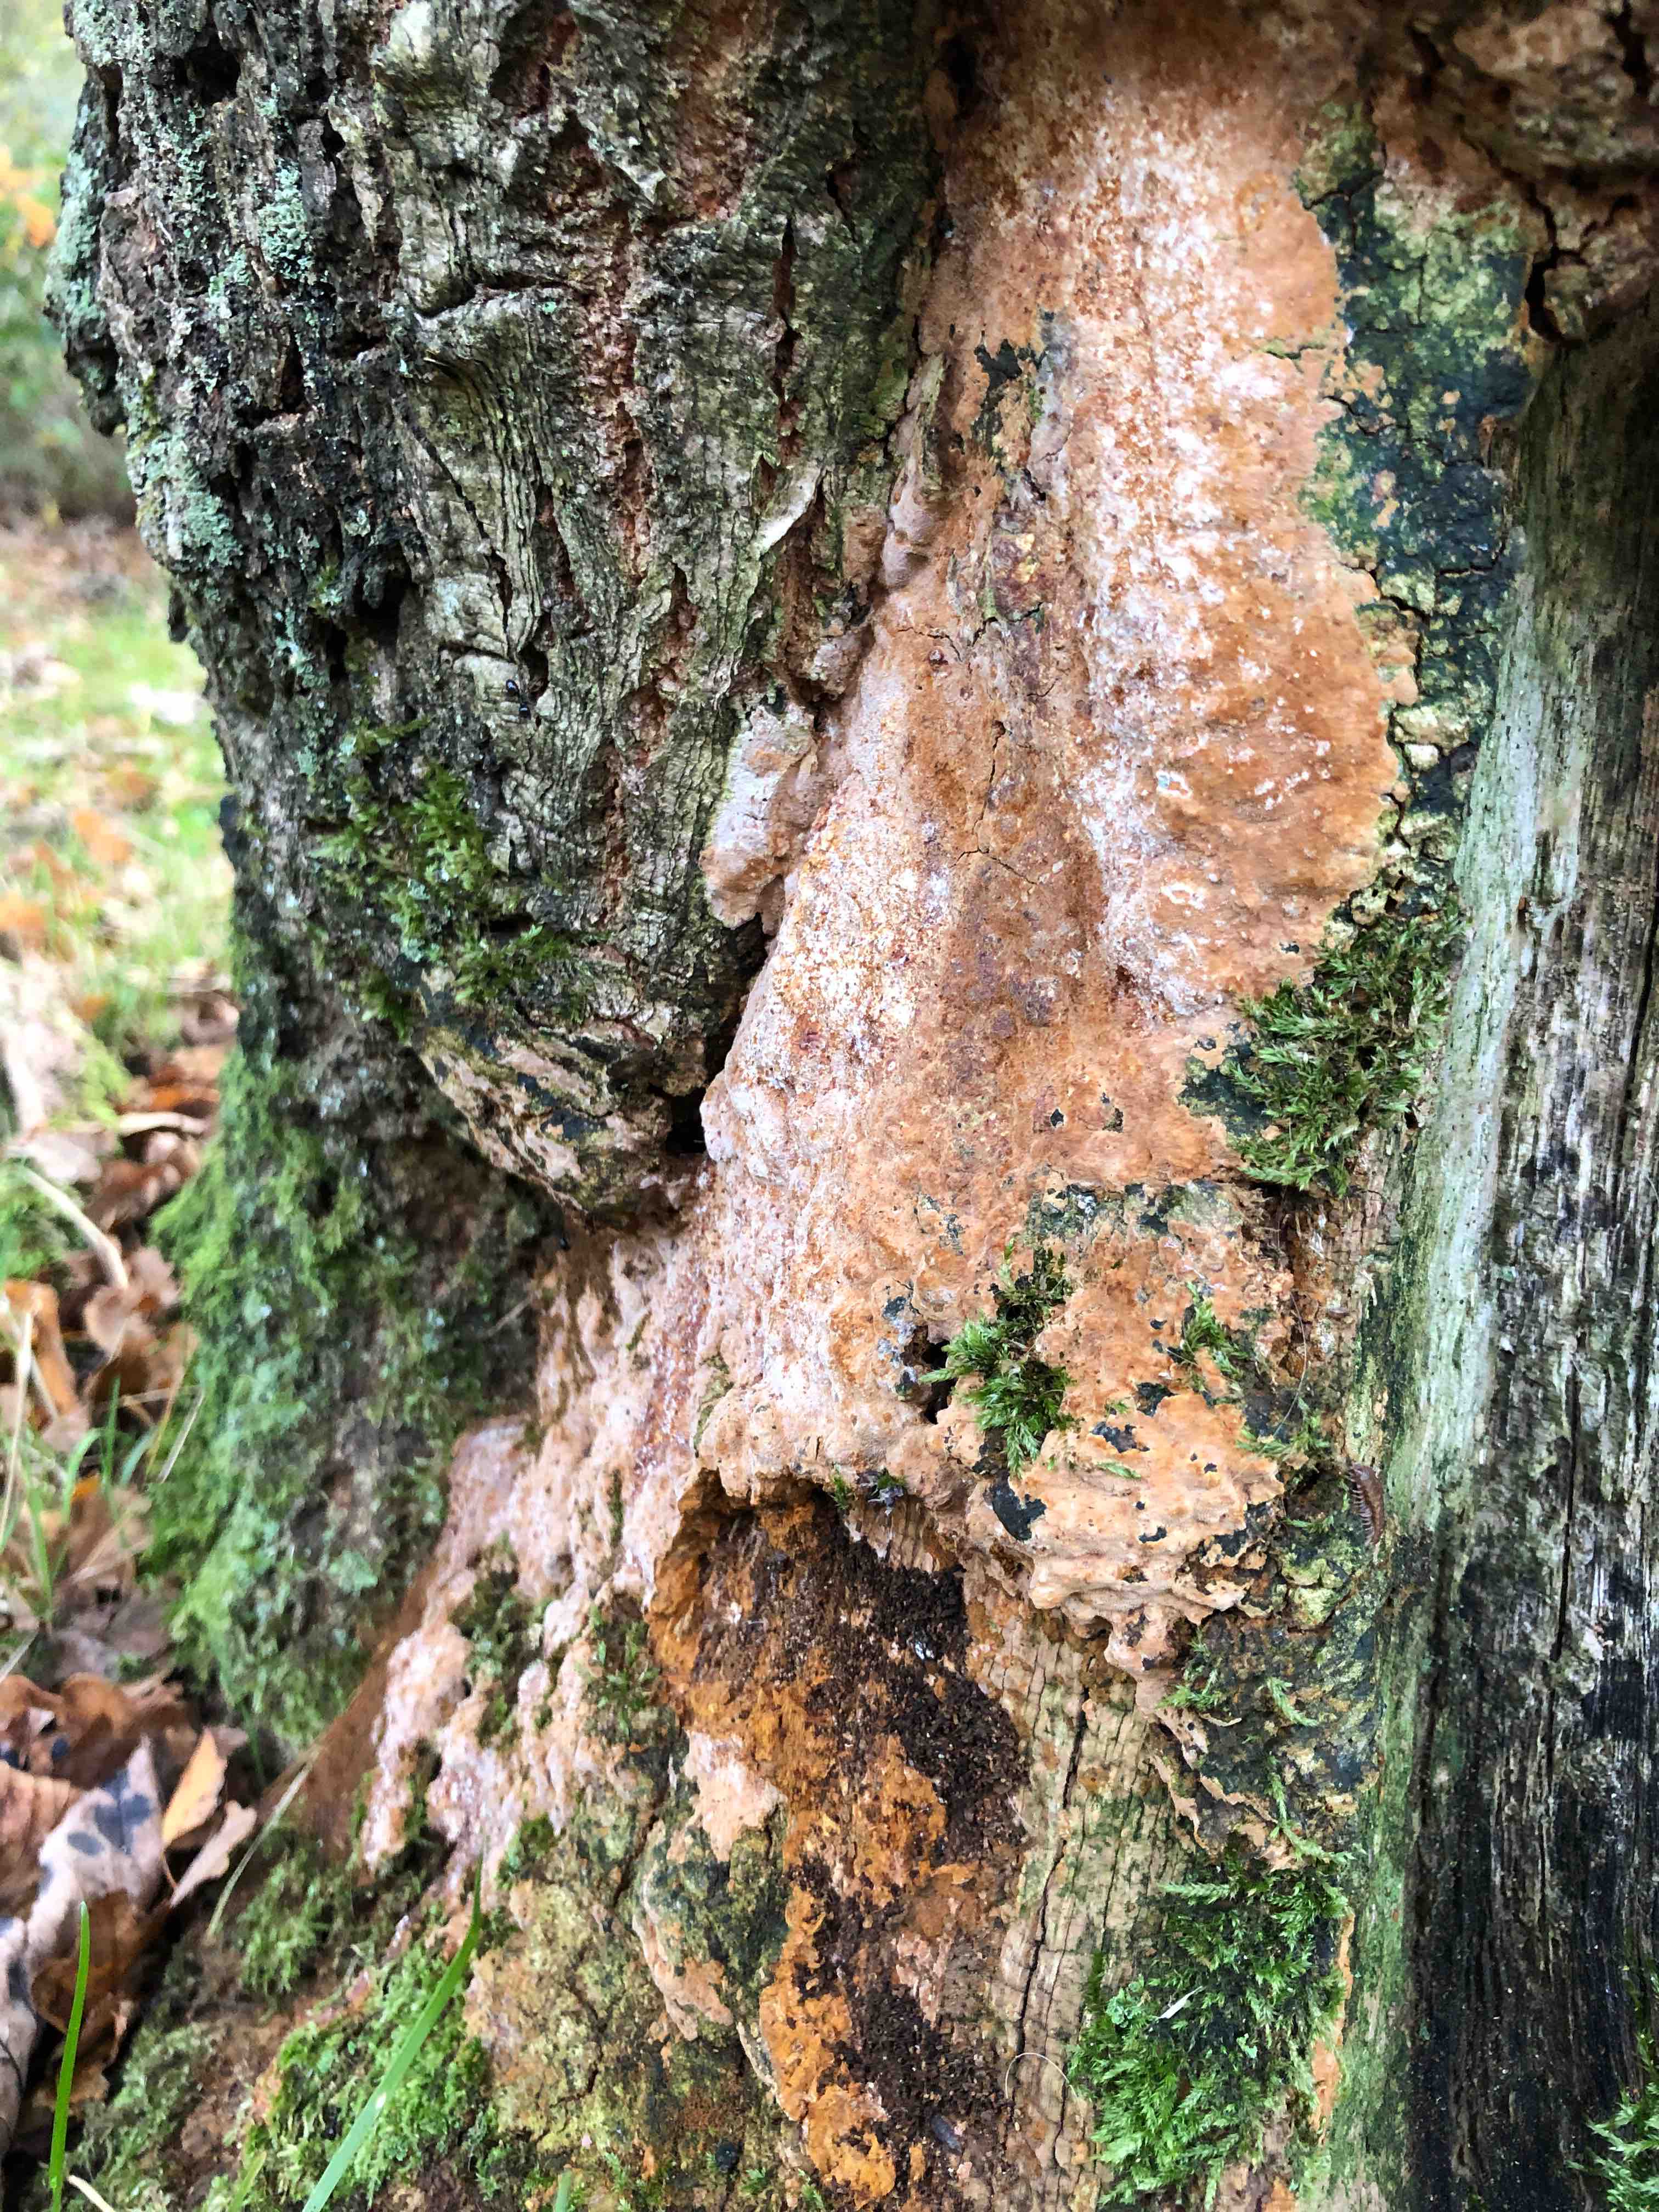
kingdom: Fungi
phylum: Basidiomycota
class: Agaricomycetes
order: Hymenochaetales
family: Hymenochaetaceae
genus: Fuscoporia
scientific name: Fuscoporia ferrea
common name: skorpe-ildporesvamp
